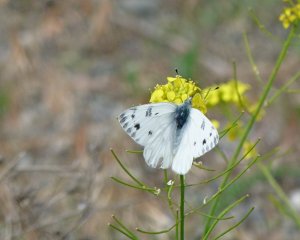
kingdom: Animalia
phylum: Arthropoda
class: Insecta
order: Lepidoptera
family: Pieridae
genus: Pontia
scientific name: Pontia occidentalis
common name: Western White
